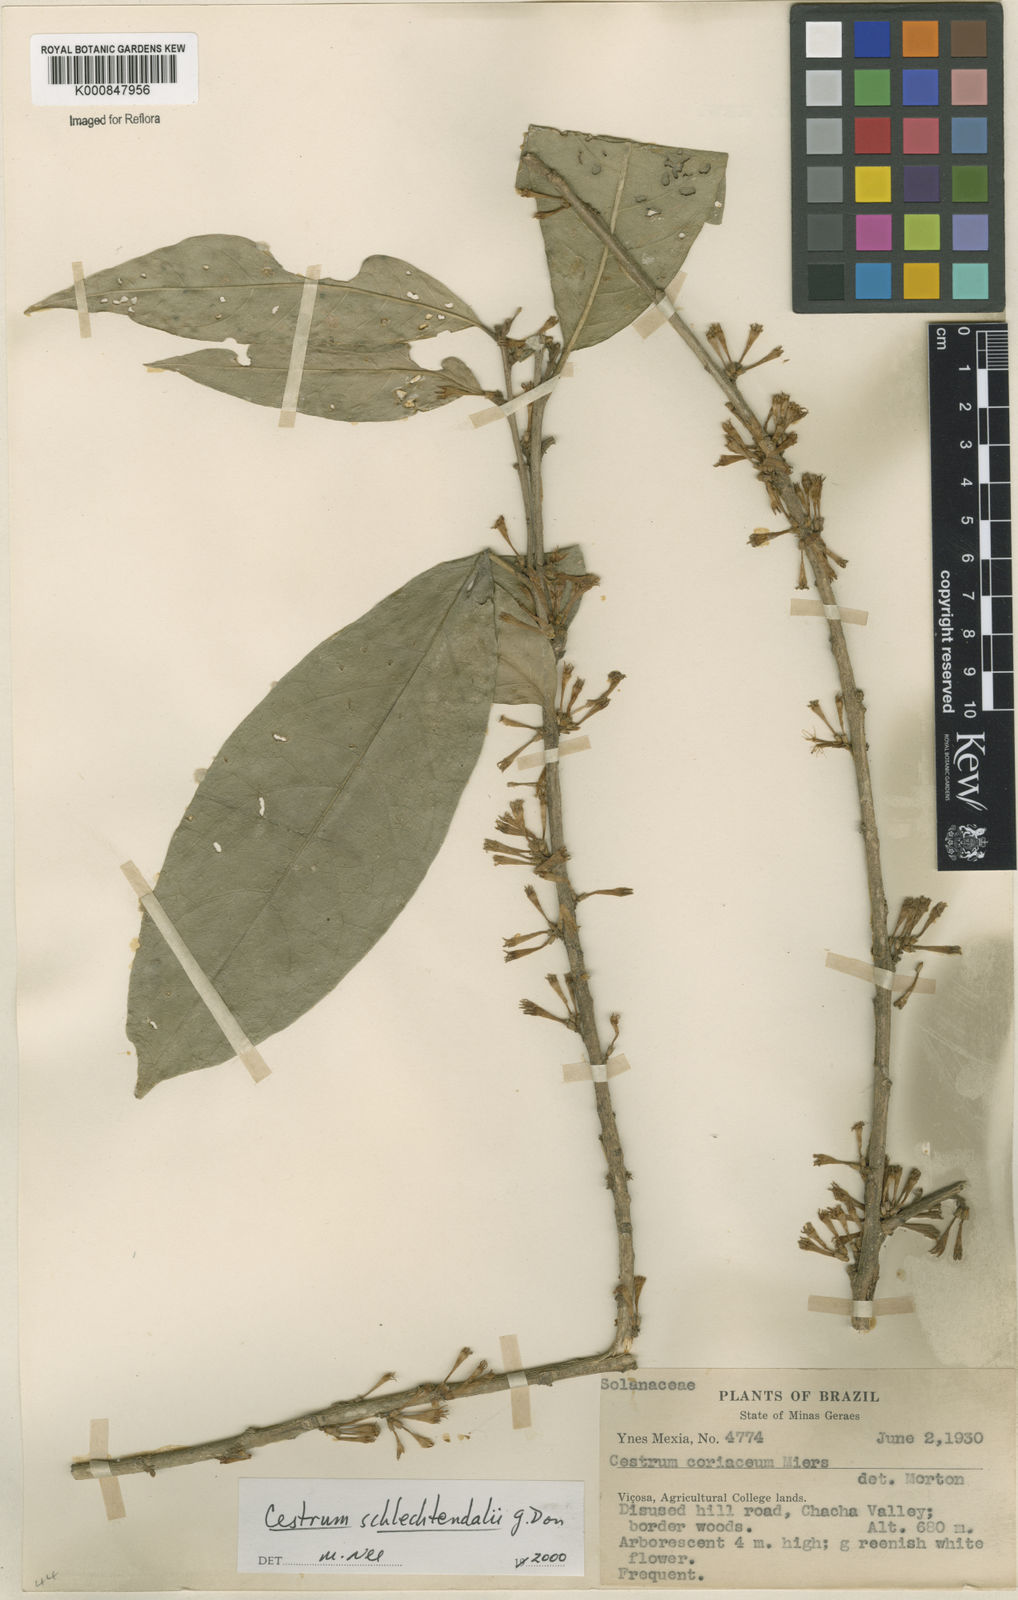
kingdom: Plantae
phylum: Tracheophyta
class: Magnoliopsida
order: Solanales
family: Solanaceae
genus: Cestrum
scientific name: Cestrum schlechtendalii
